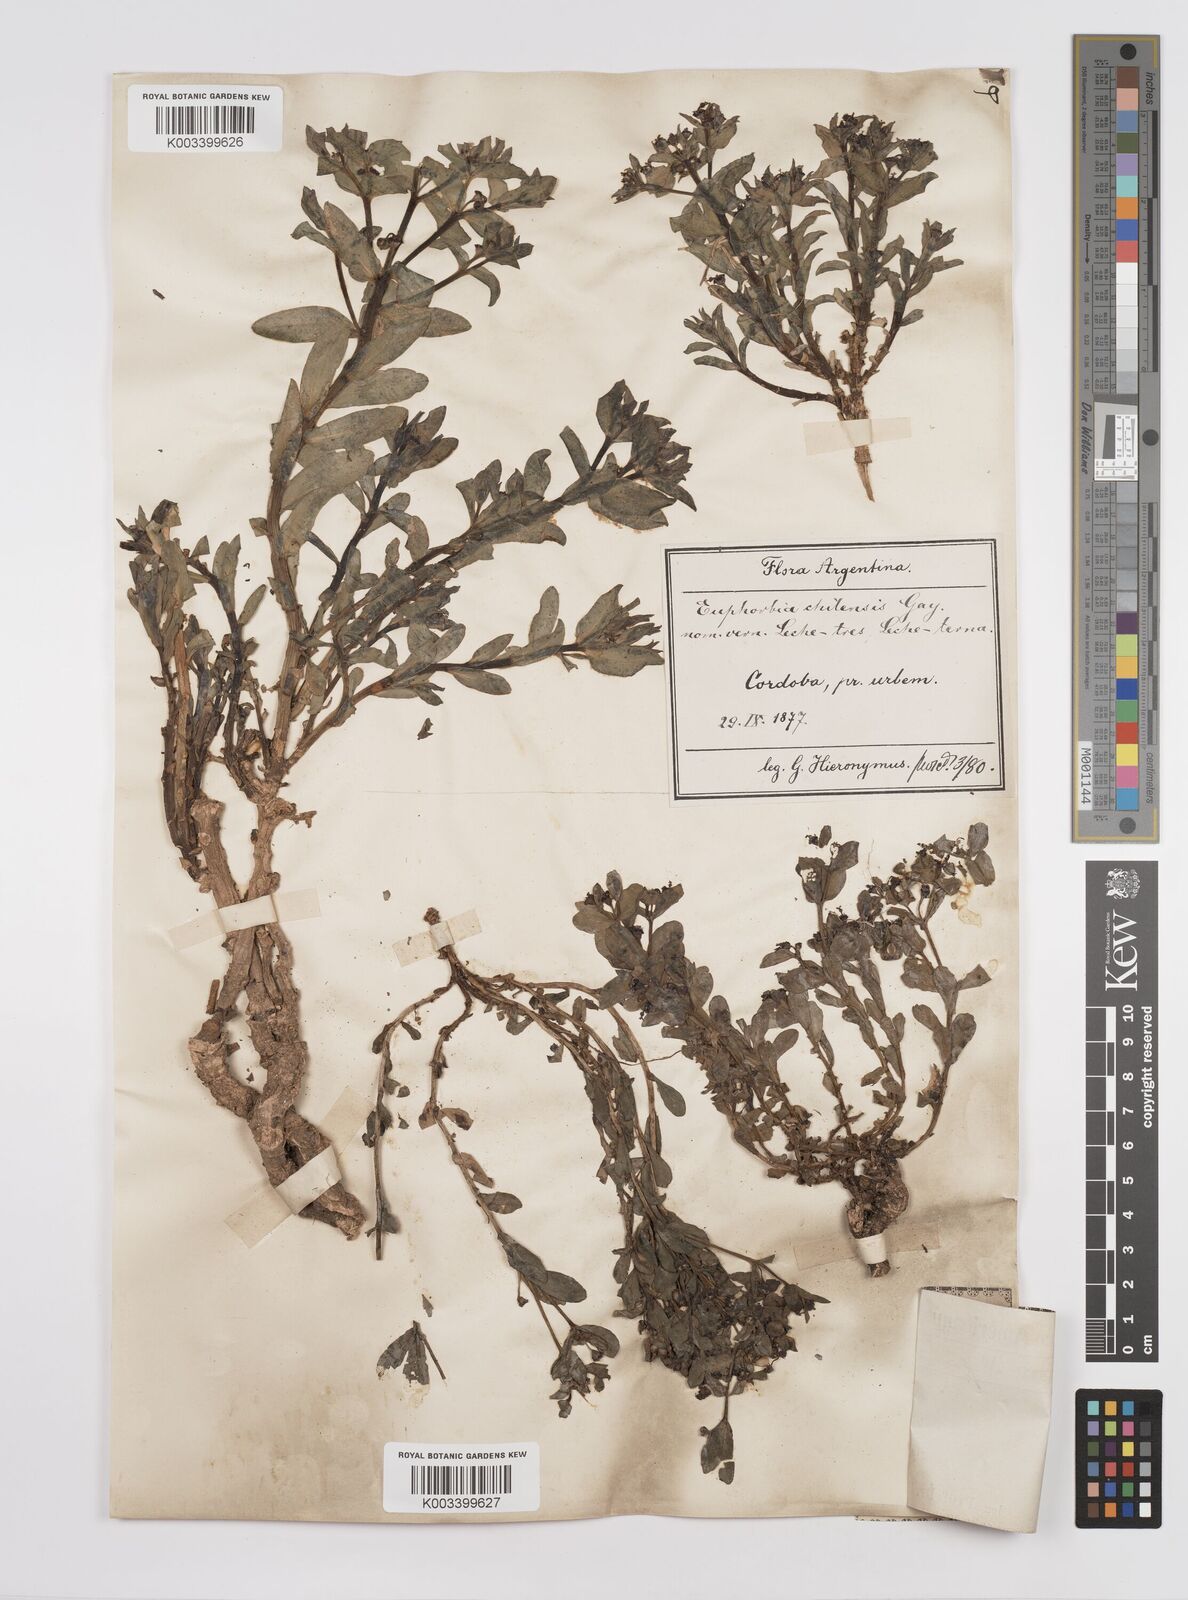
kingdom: Plantae
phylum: Tracheophyta
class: Magnoliopsida
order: Malpighiales
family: Euphorbiaceae
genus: Euphorbia
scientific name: Euphorbia portulacoides
